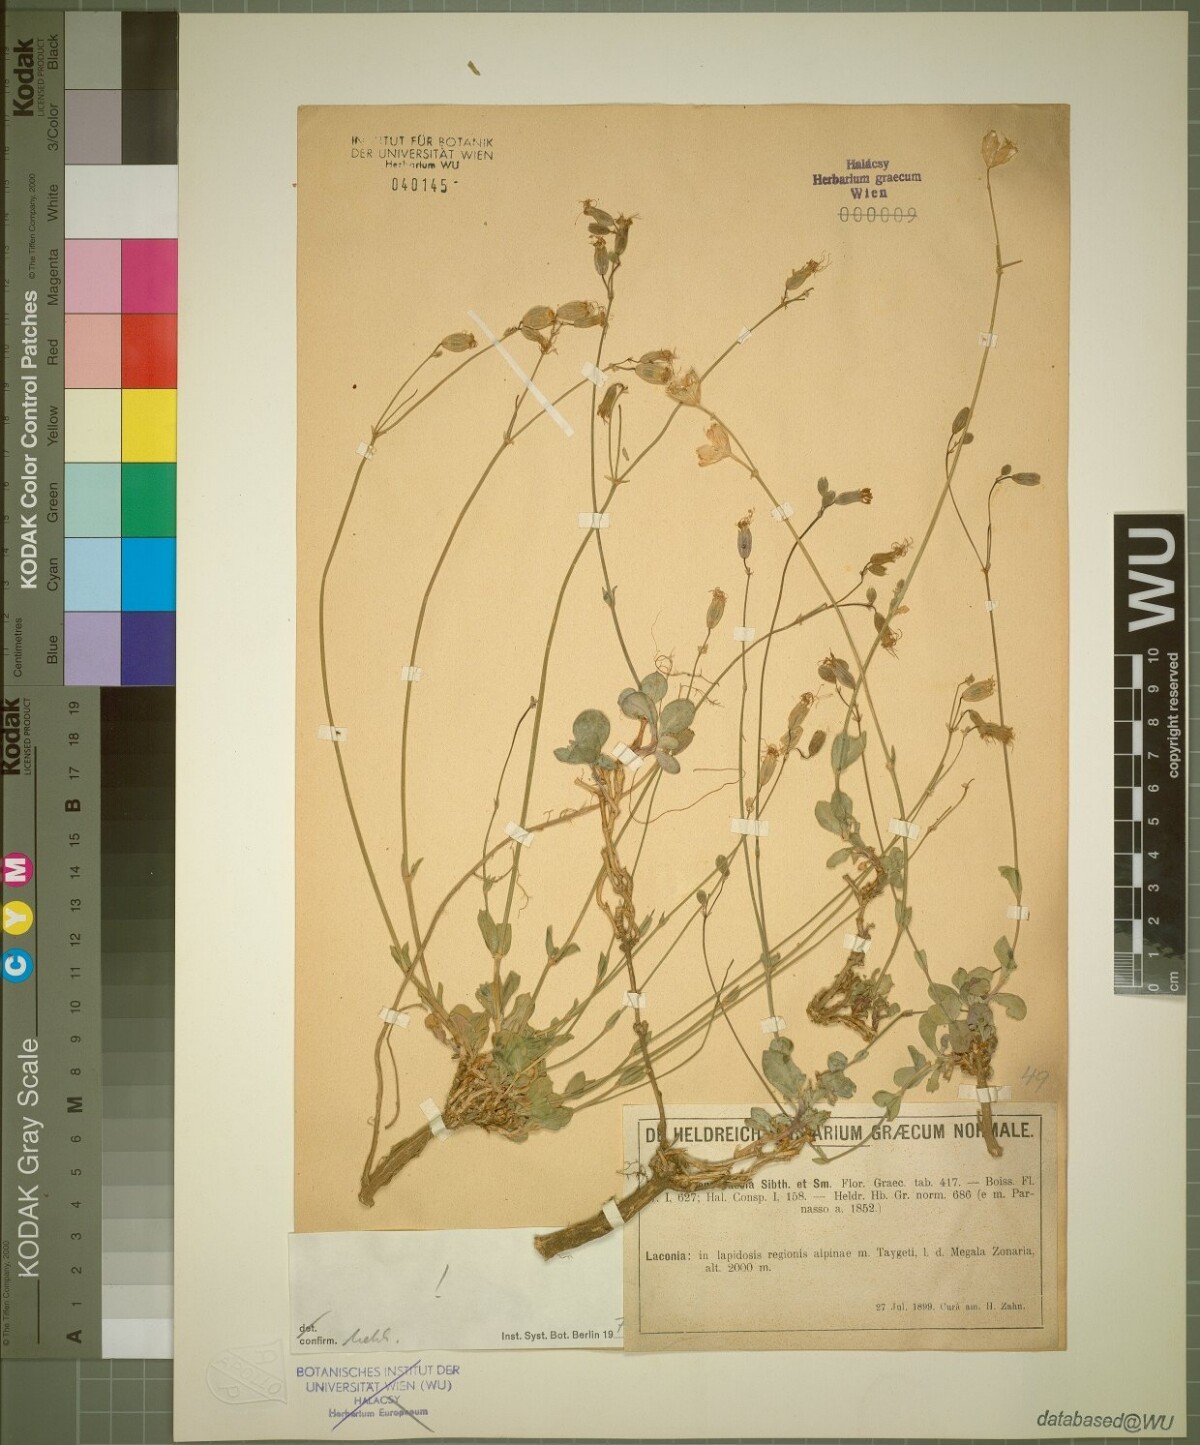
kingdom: Plantae
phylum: Tracheophyta
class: Magnoliopsida
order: Caryophyllales
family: Caryophyllaceae
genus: Silene
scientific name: Silene caesia
